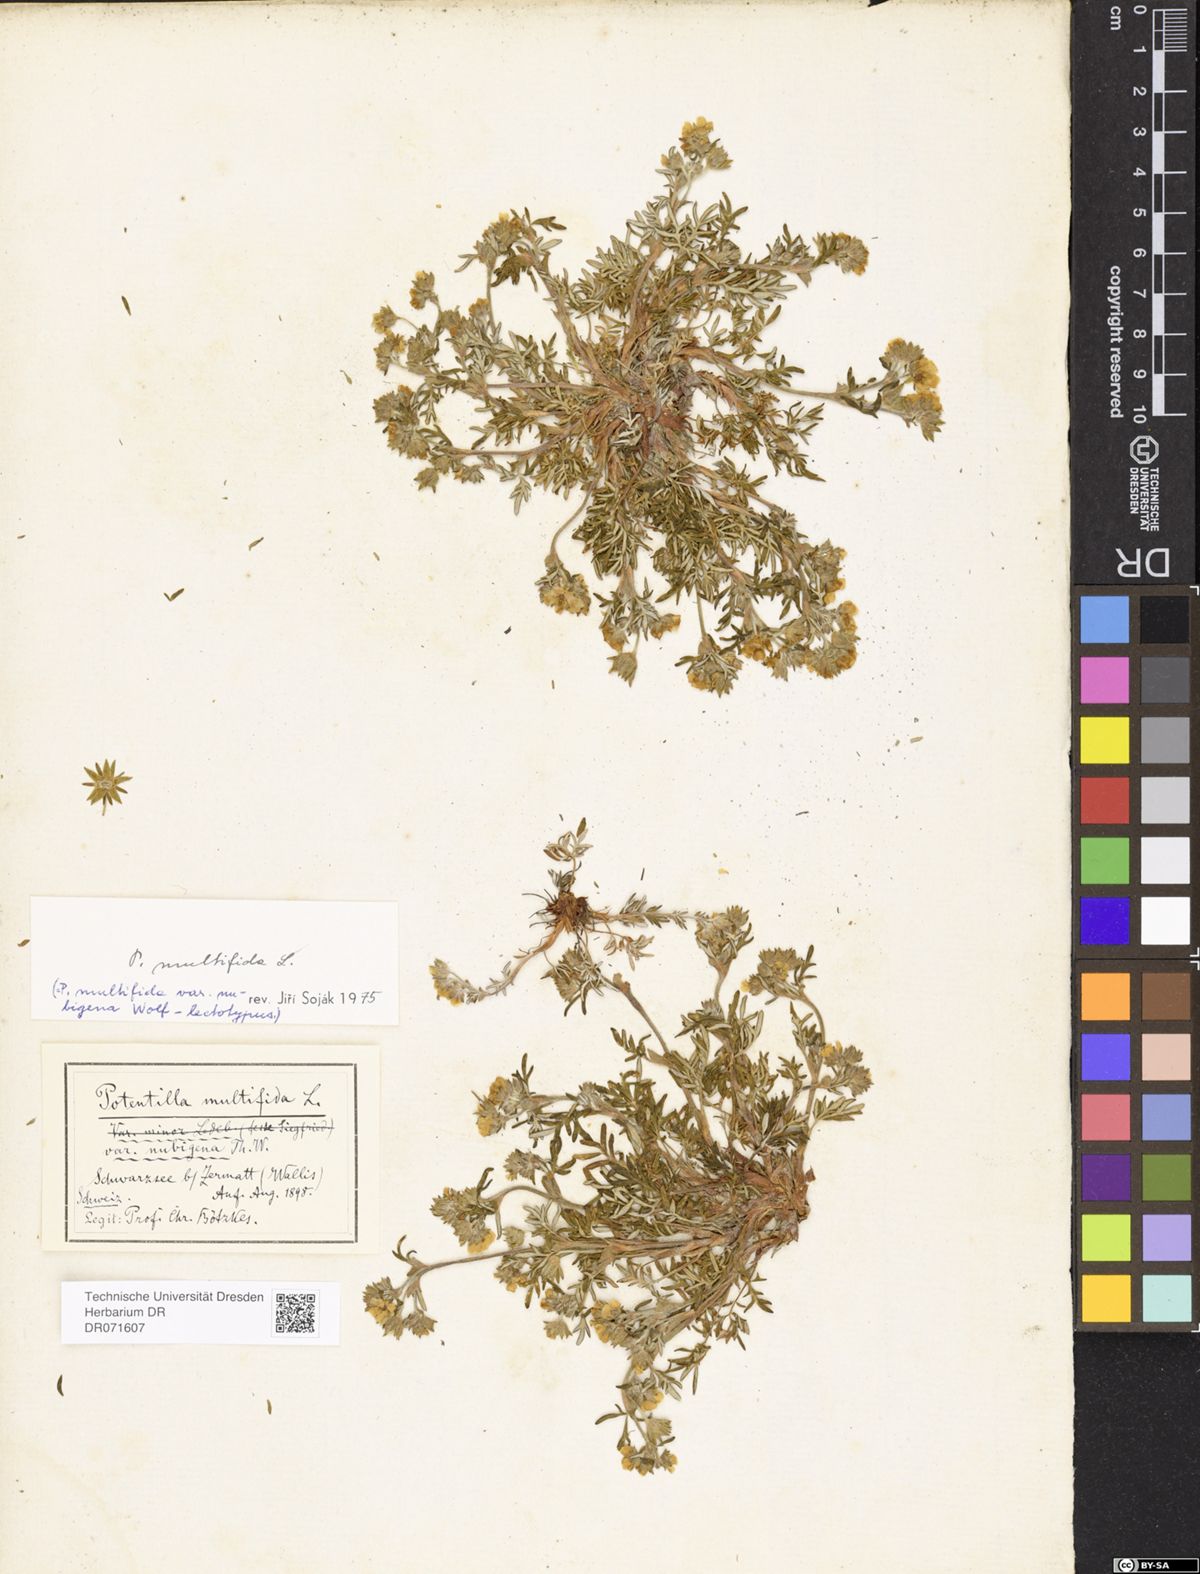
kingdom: Plantae
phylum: Tracheophyta
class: Magnoliopsida
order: Rosales
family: Rosaceae
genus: Potentilla
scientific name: Potentilla multifida
